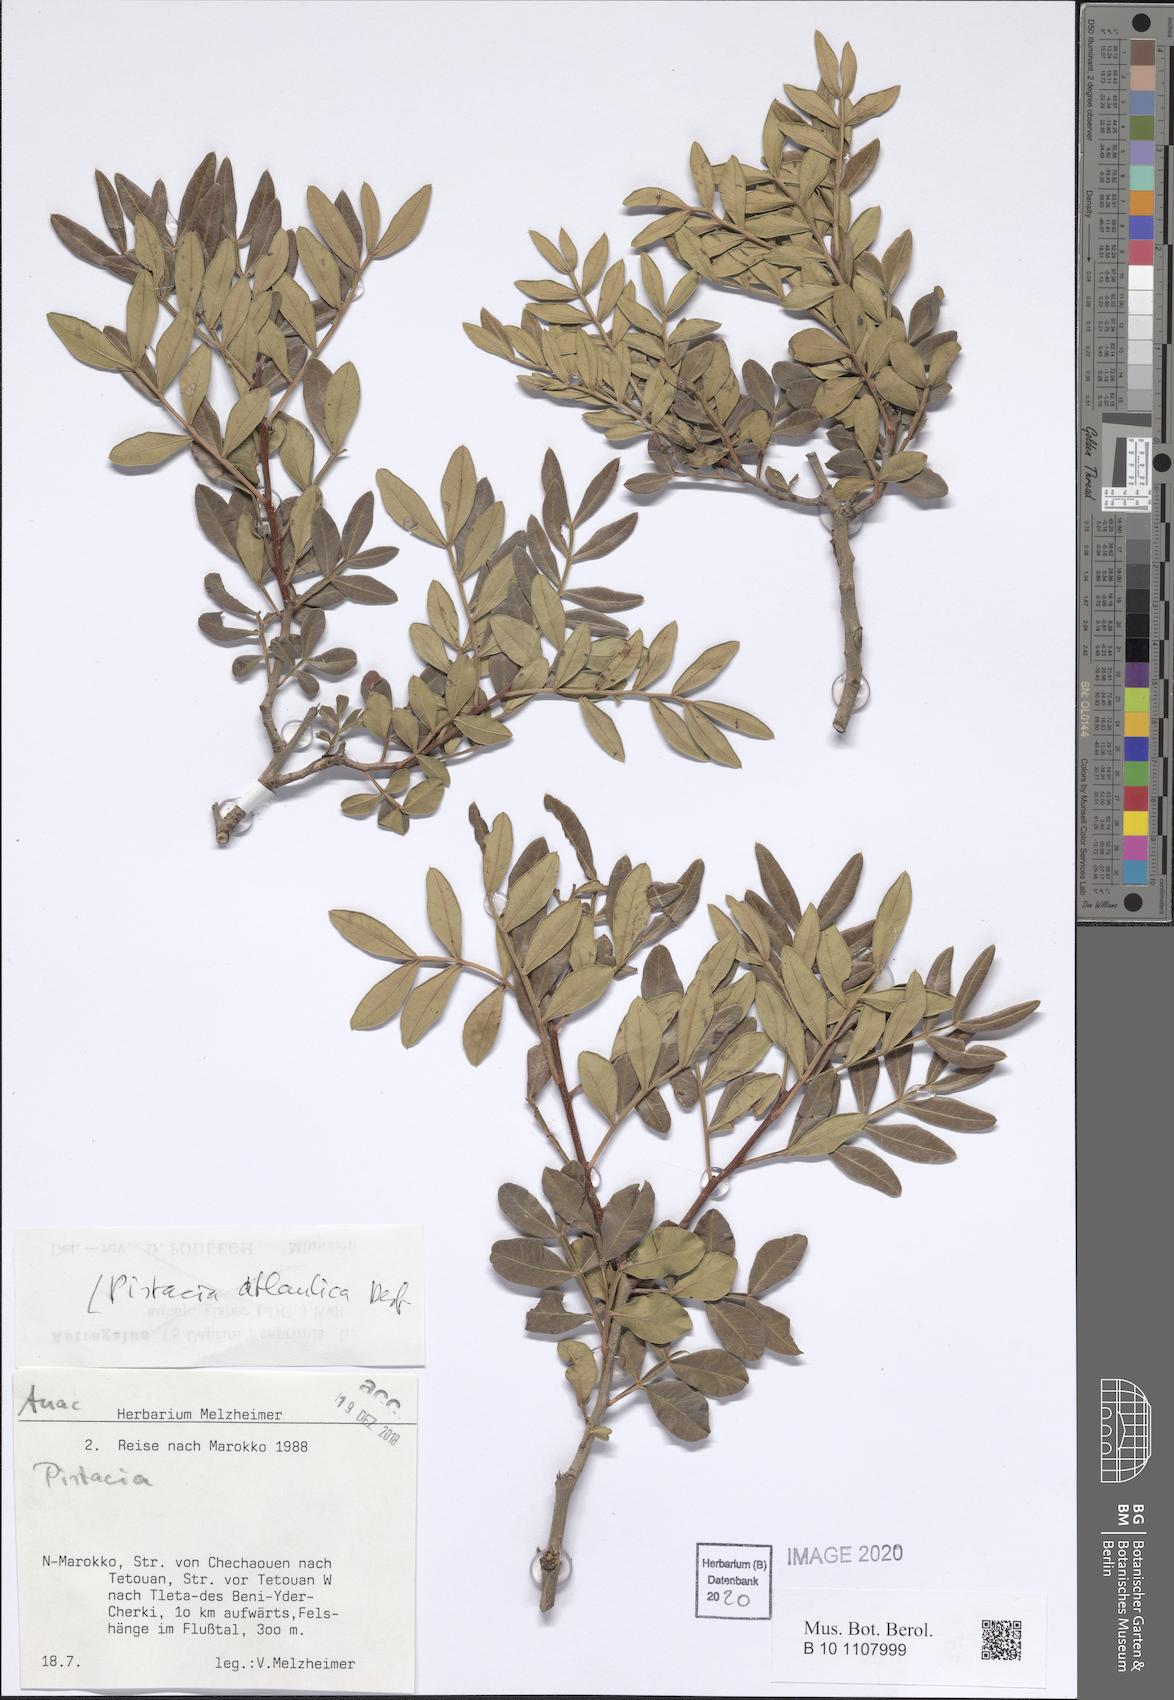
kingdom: Plantae
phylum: Tracheophyta
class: Magnoliopsida
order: Sapindales
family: Anacardiaceae
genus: Pistacia
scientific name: Pistacia atlantica
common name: Mt. atlas mastic tree
